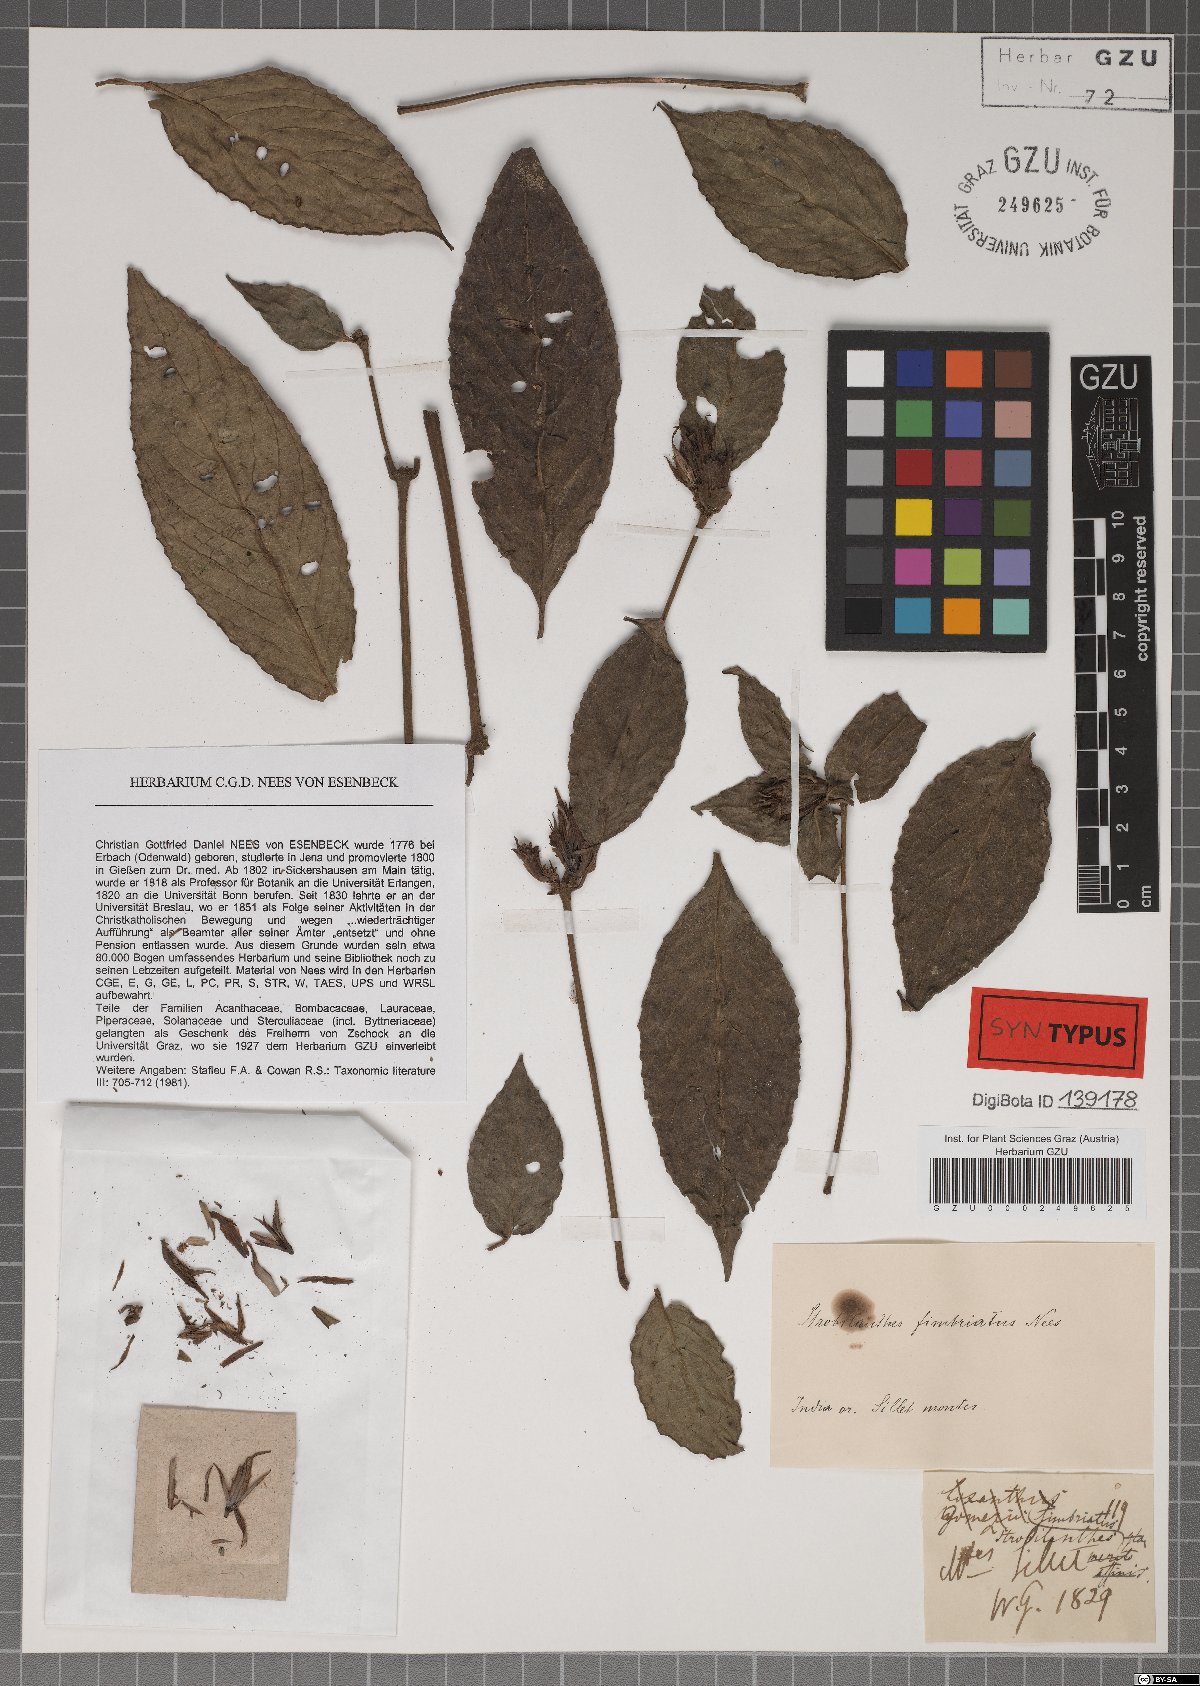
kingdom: Plantae
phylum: Tracheophyta
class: Magnoliopsida
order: Lamiales
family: Acanthaceae
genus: Strobilanthes
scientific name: Strobilanthes fimbriata
